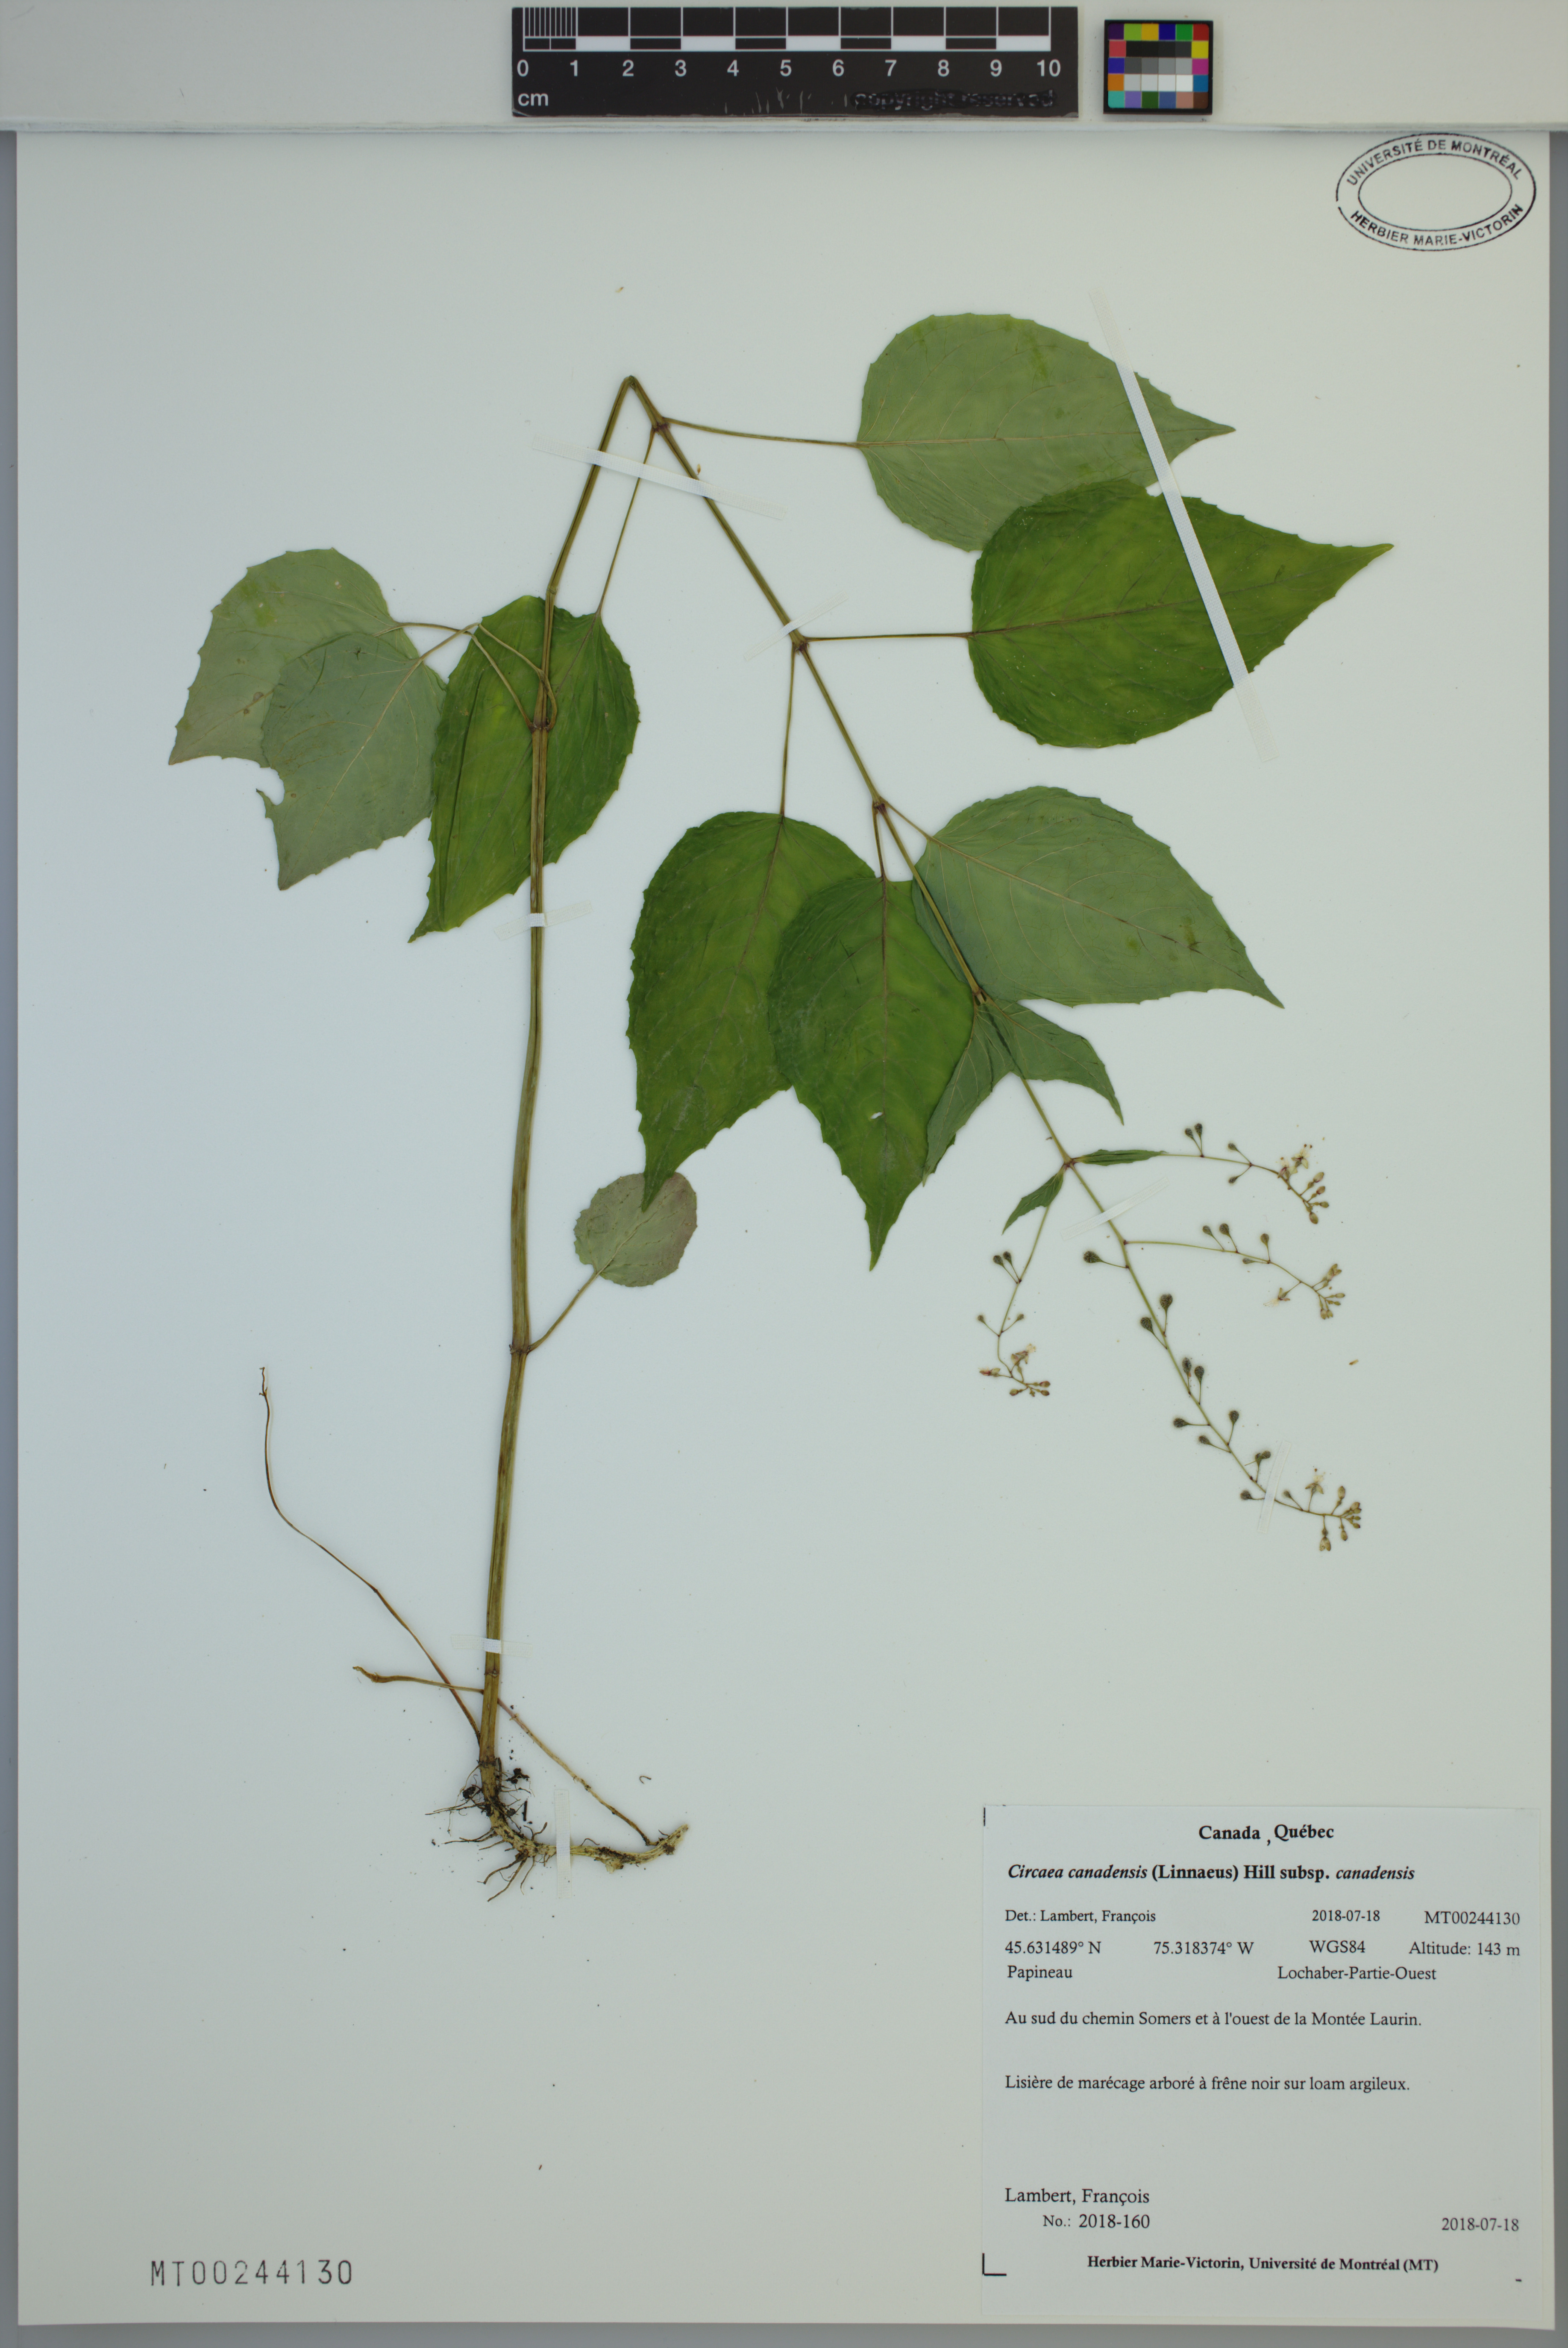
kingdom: Plantae
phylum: Tracheophyta
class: Magnoliopsida
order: Myrtales
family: Onagraceae
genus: Circaea
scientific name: Circaea canadensis
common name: Broad-leaved enchanter's nightshade
